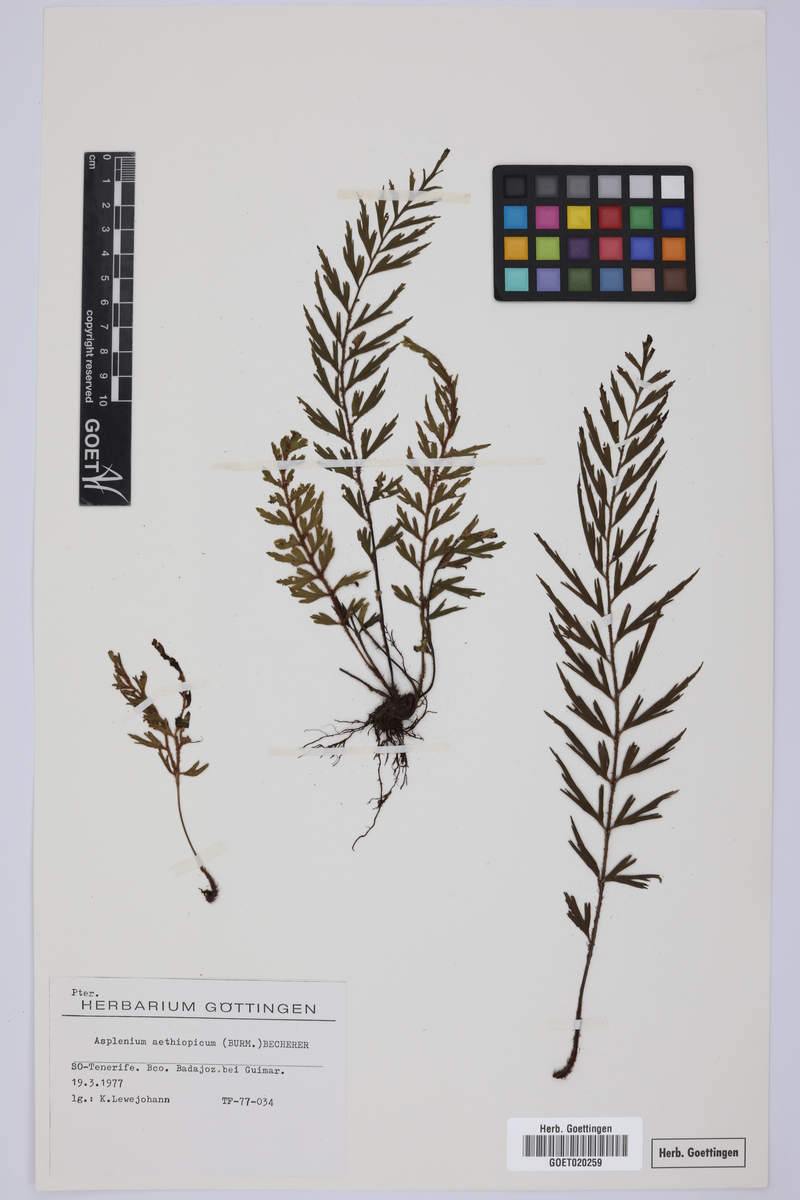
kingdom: Plantae
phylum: Tracheophyta
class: Polypodiopsida
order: Polypodiales
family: Aspleniaceae
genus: Asplenium
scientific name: Asplenium aethiopicum
